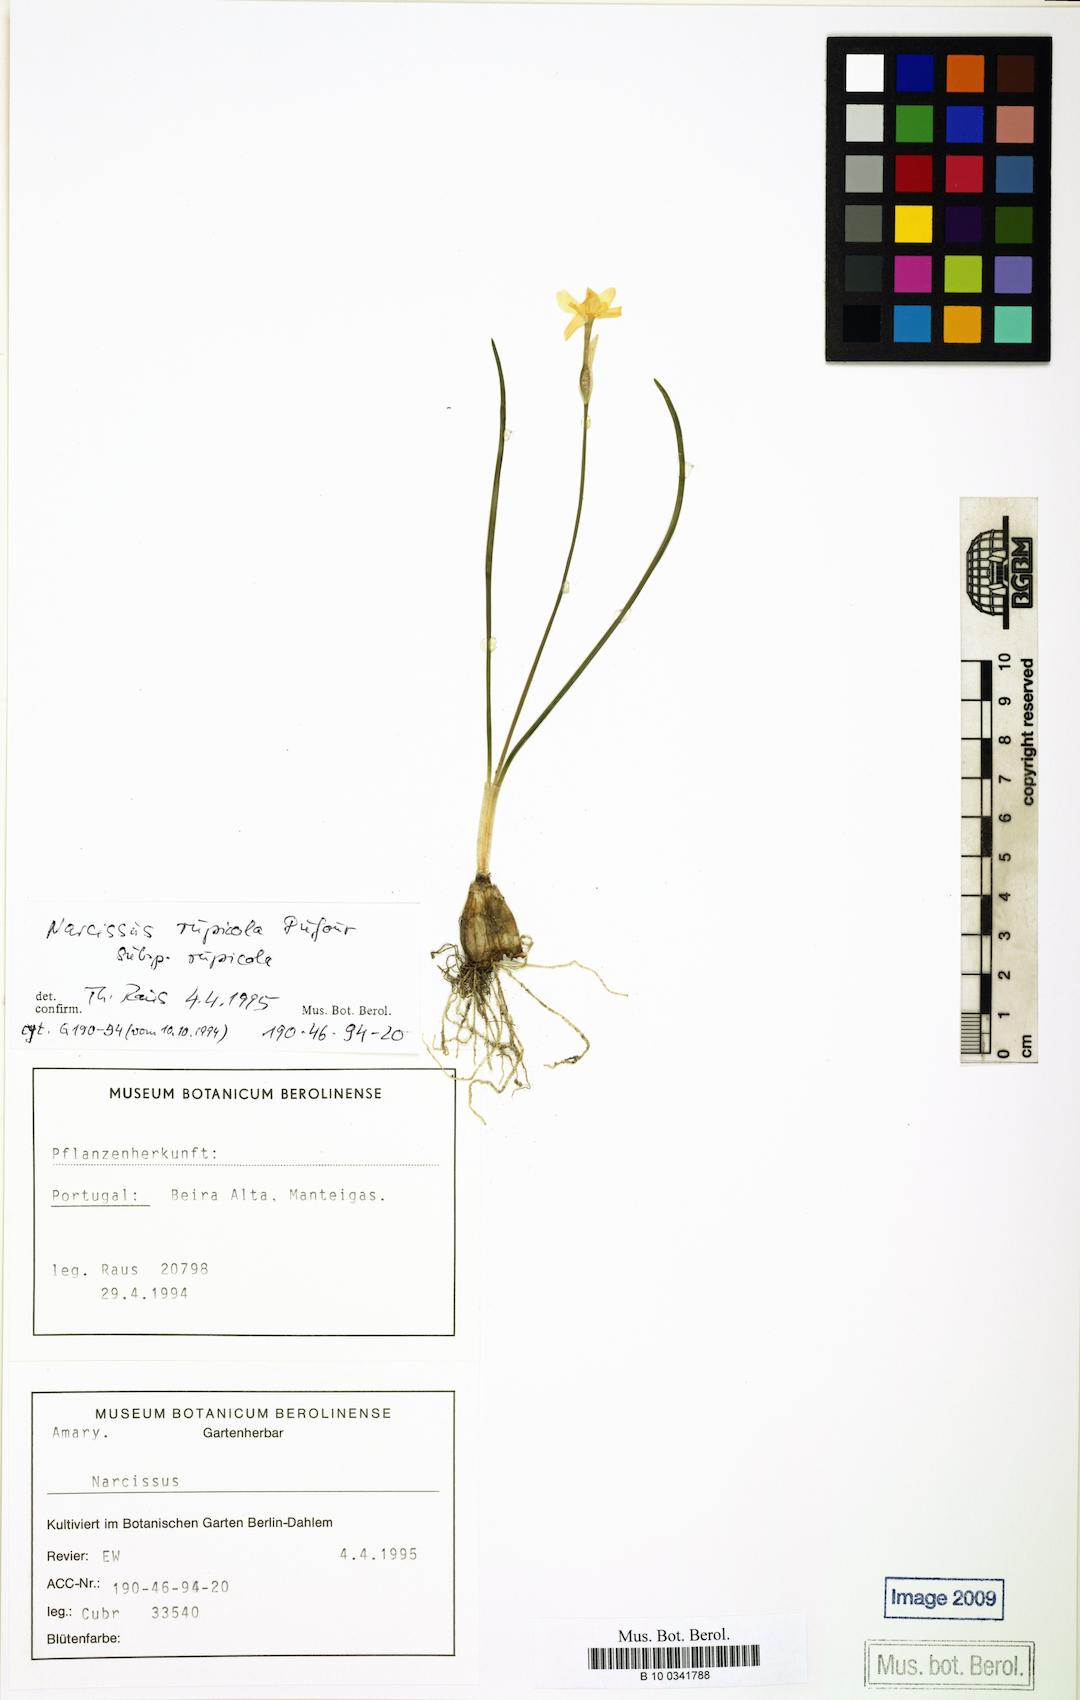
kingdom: Plantae
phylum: Tracheophyta
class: Liliopsida
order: Asparagales
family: Amaryllidaceae
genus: Narcissus
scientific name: Narcissus rupicola
